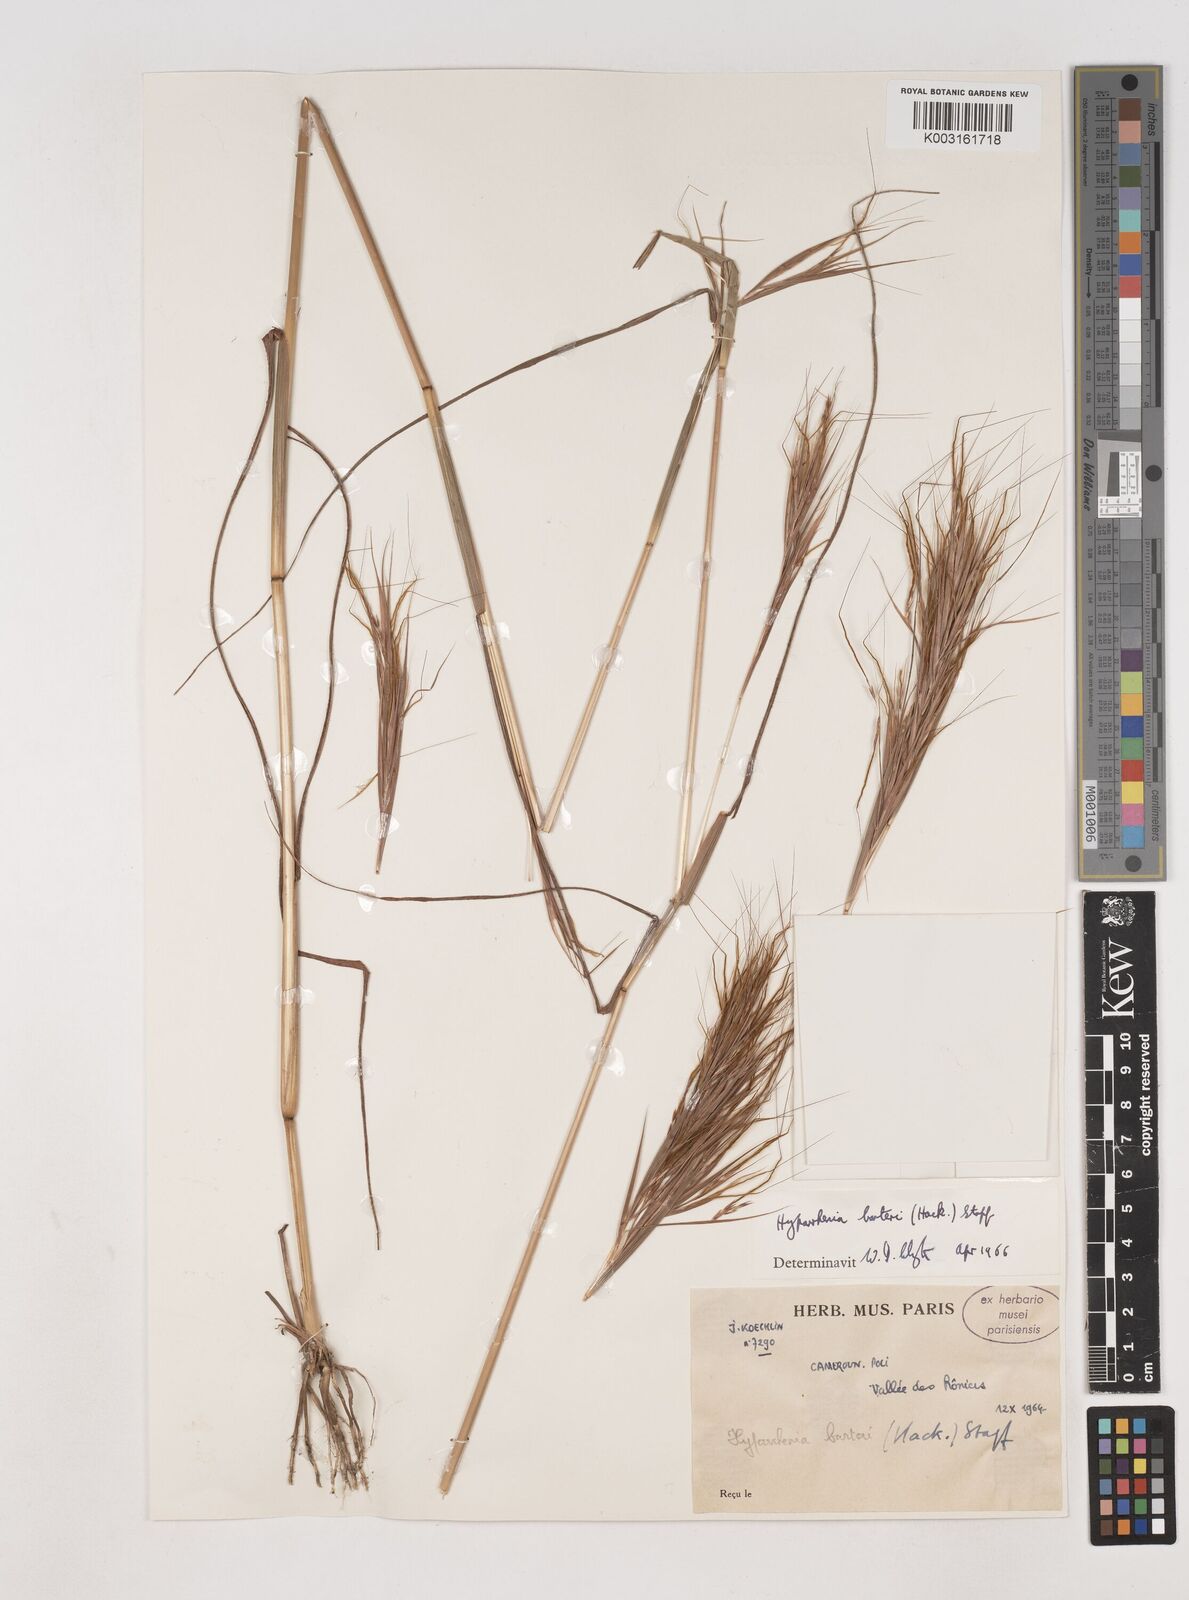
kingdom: Plantae
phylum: Tracheophyta
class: Liliopsida
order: Poales
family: Poaceae
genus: Hyparrhenia
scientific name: Hyparrhenia barteri
